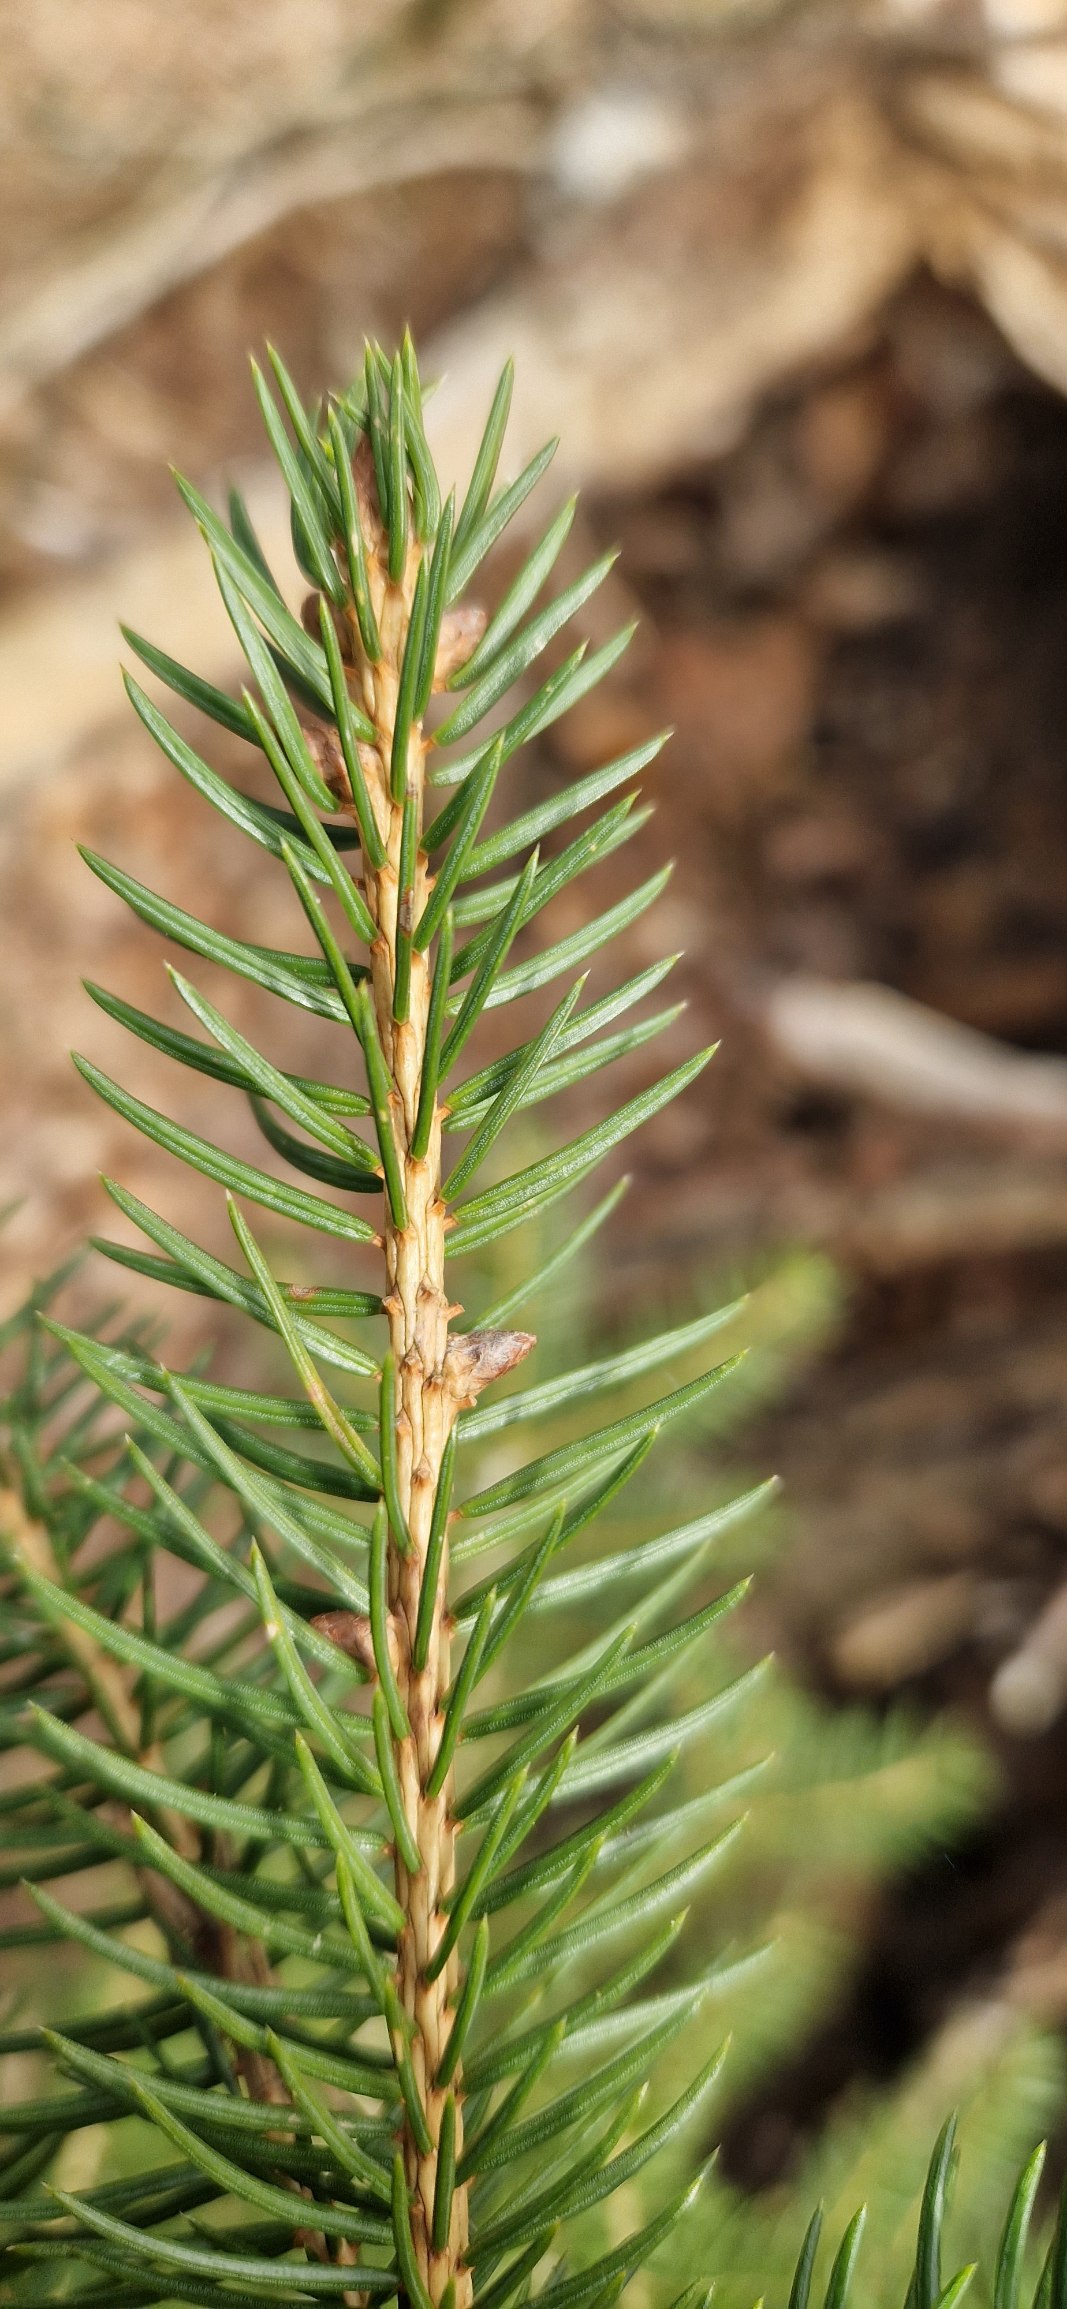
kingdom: Plantae
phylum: Tracheophyta
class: Pinopsida
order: Pinales
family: Pinaceae
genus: Picea
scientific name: Picea abies
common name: Rød-gran
